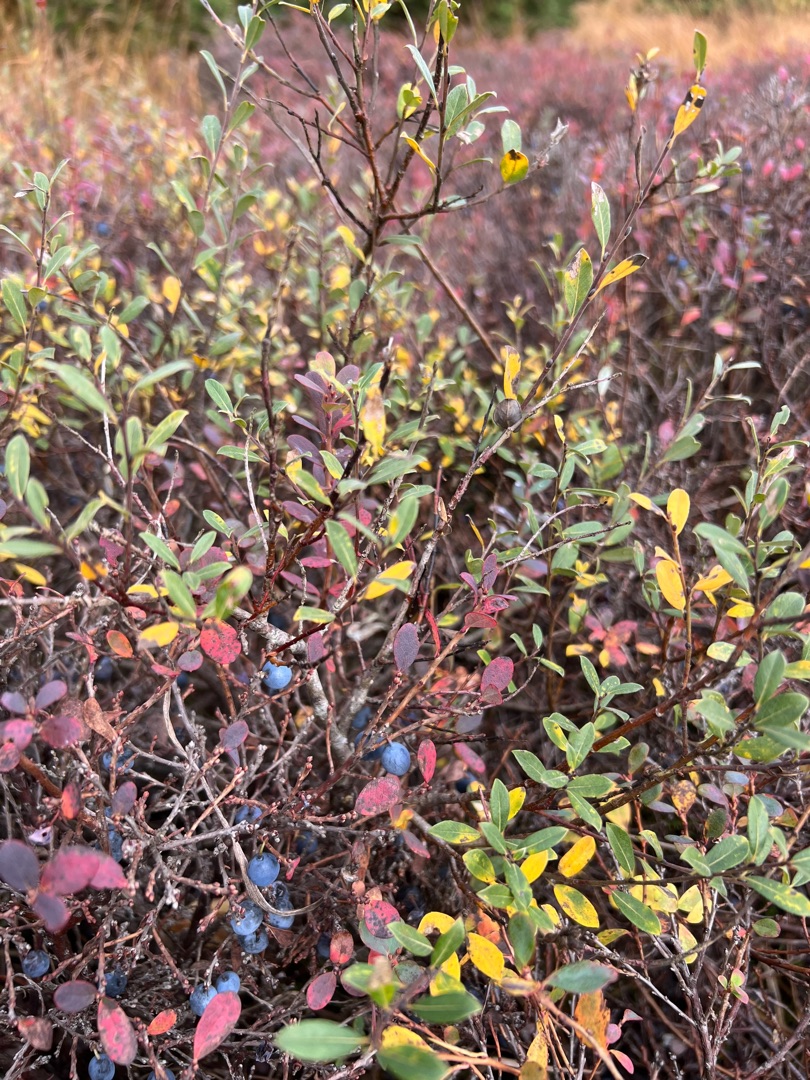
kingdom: Plantae
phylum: Tracheophyta
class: Magnoliopsida
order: Ericales
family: Ericaceae
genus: Vaccinium
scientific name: Vaccinium uliginosum
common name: Mose-bølle
